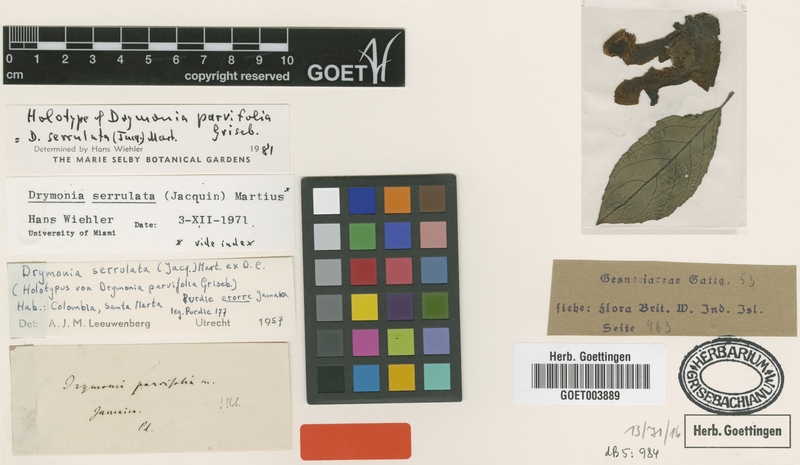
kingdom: Plantae
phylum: Tracheophyta
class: Magnoliopsida
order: Lamiales
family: Gesneriaceae
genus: Drymonia
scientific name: Drymonia serrulata
